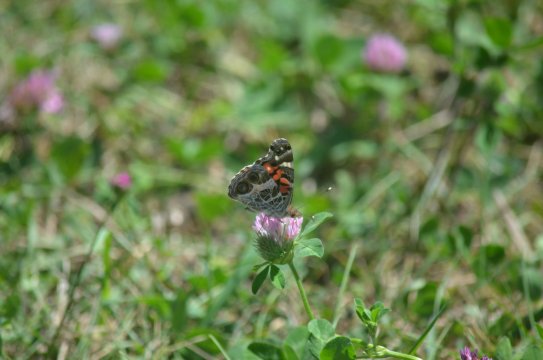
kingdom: Animalia
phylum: Arthropoda
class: Insecta
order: Lepidoptera
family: Nymphalidae
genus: Vanessa
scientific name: Vanessa virginiensis
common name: American Lady
